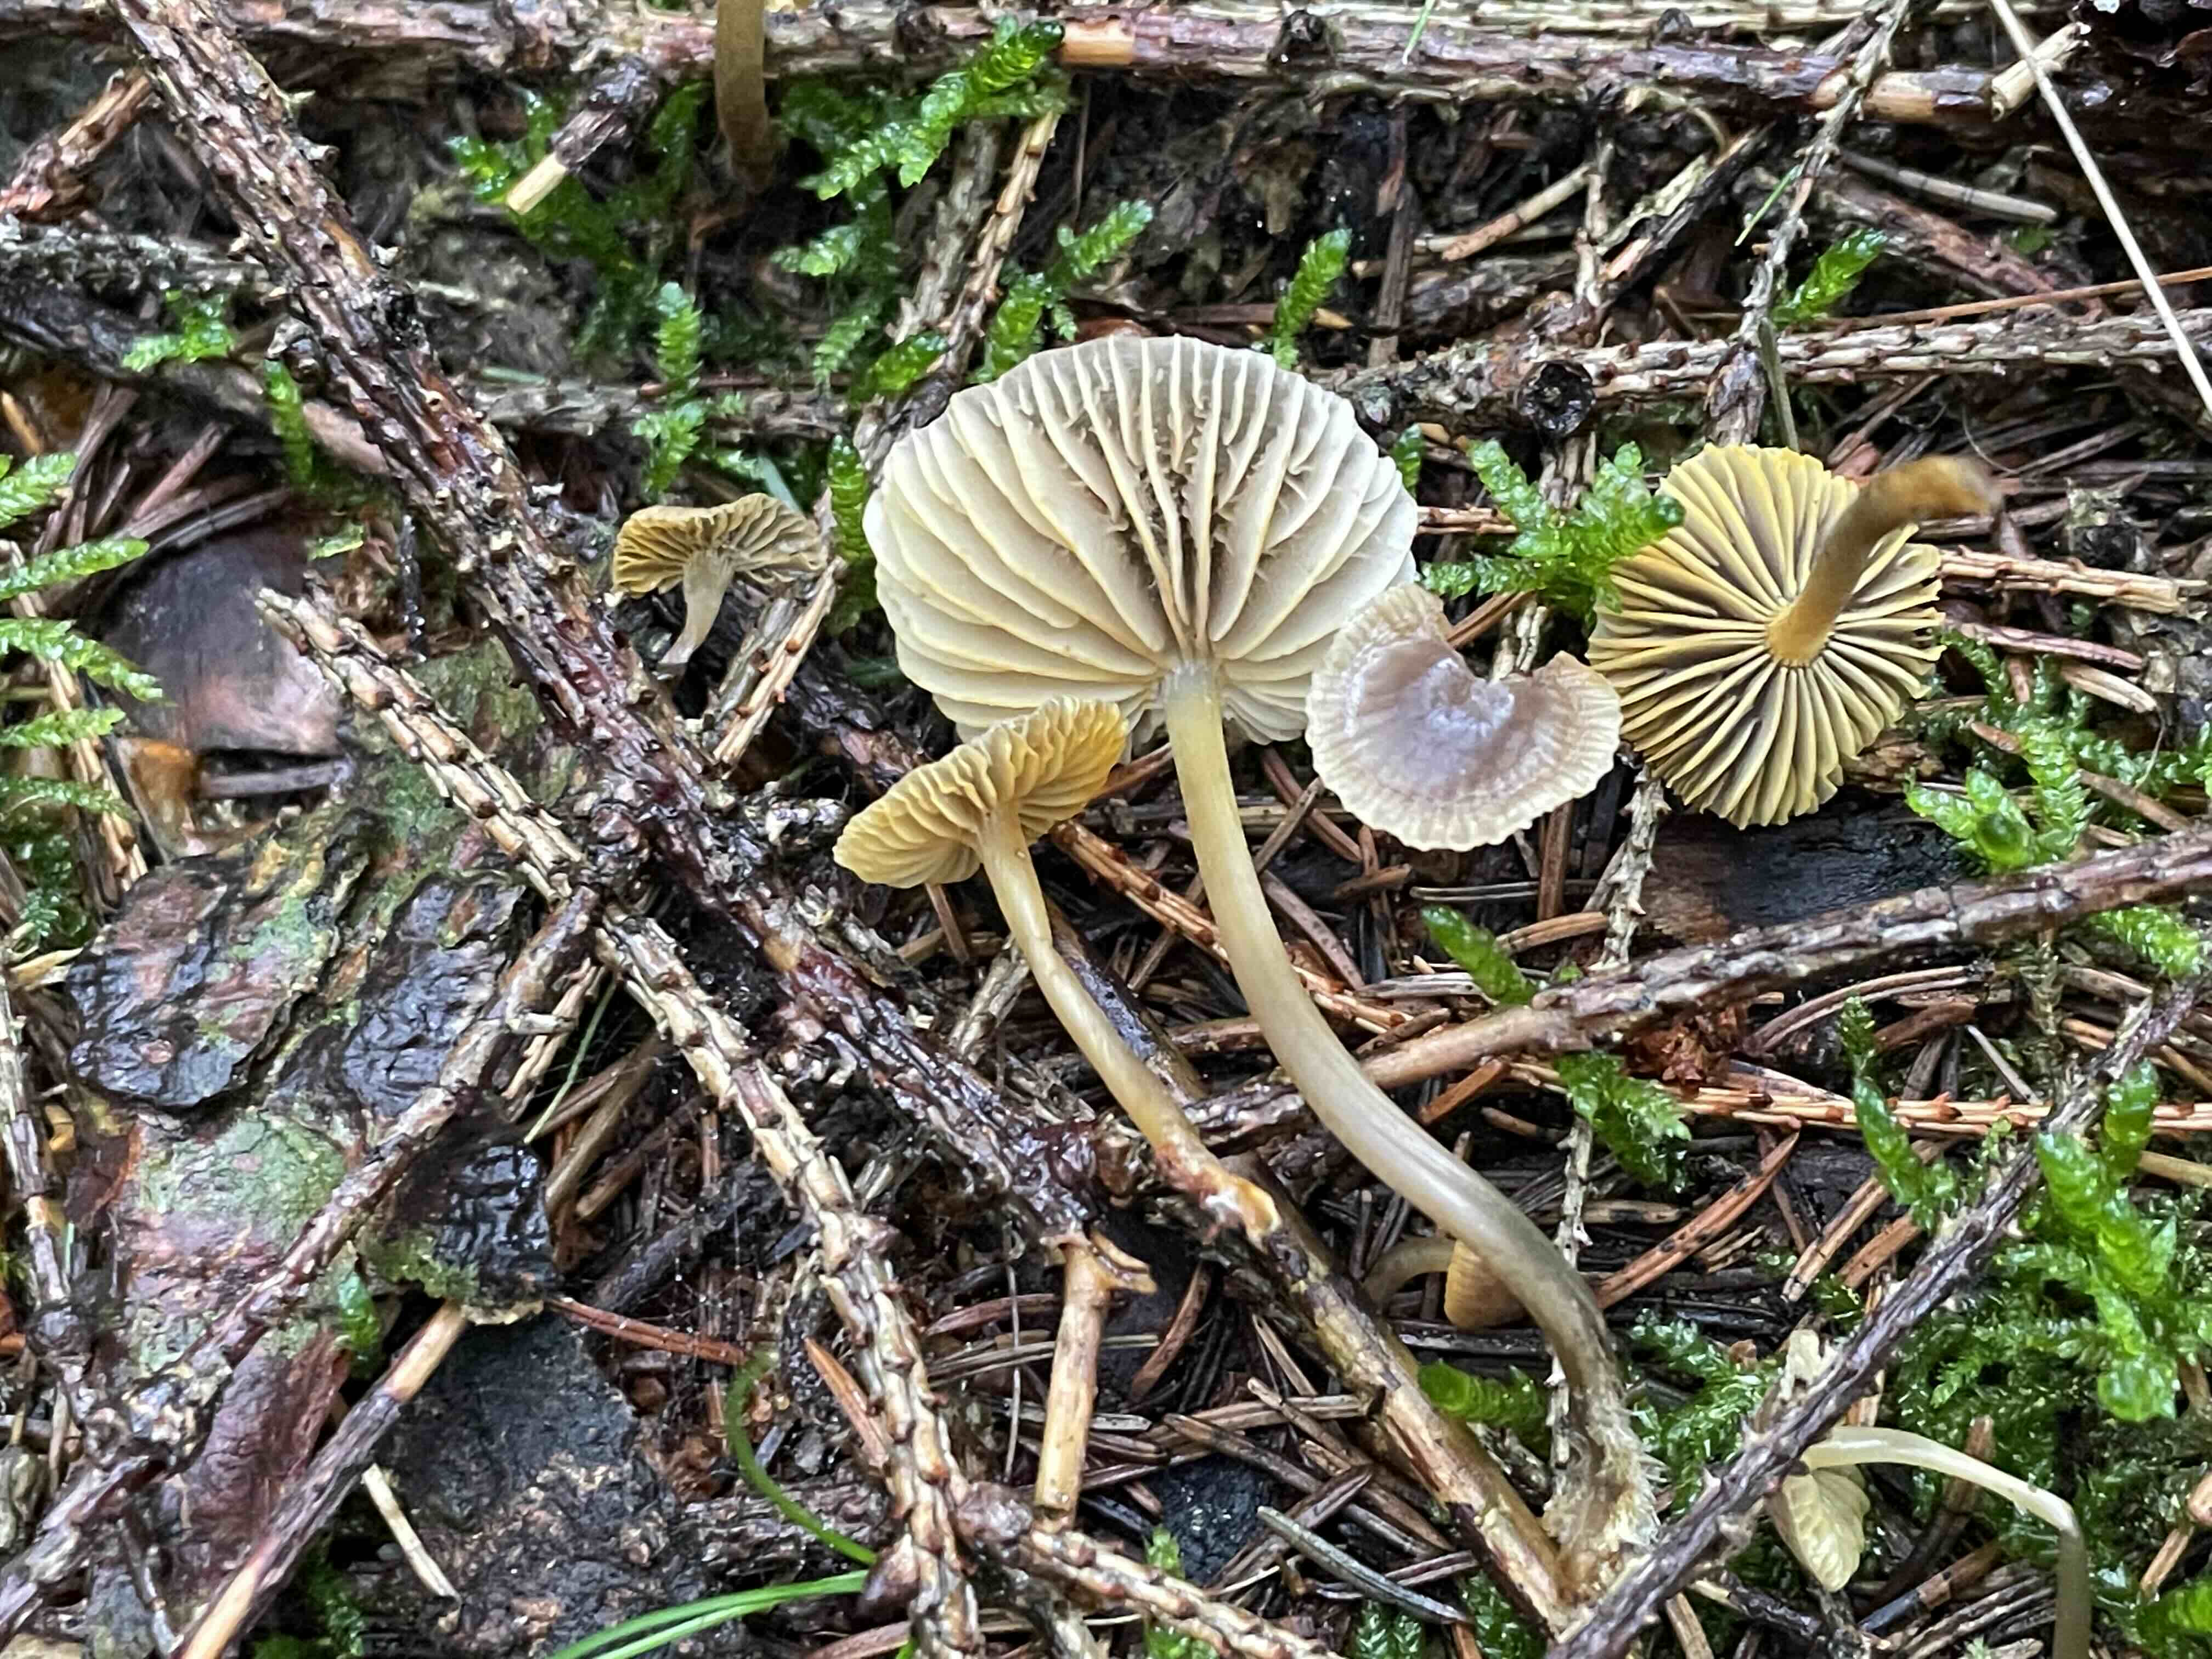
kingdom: Fungi
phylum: Basidiomycota
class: Agaricomycetes
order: Agaricales
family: Mycenaceae
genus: Mycena
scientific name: Mycena aurantiomarginata
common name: orangeægget huesvamp
